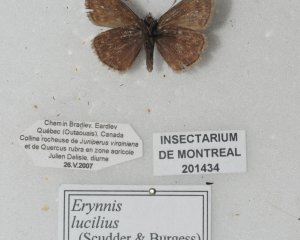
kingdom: Animalia
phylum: Arthropoda
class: Insecta
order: Lepidoptera
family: Hesperiidae
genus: Gesta
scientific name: Gesta
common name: Columbine Duskywing
